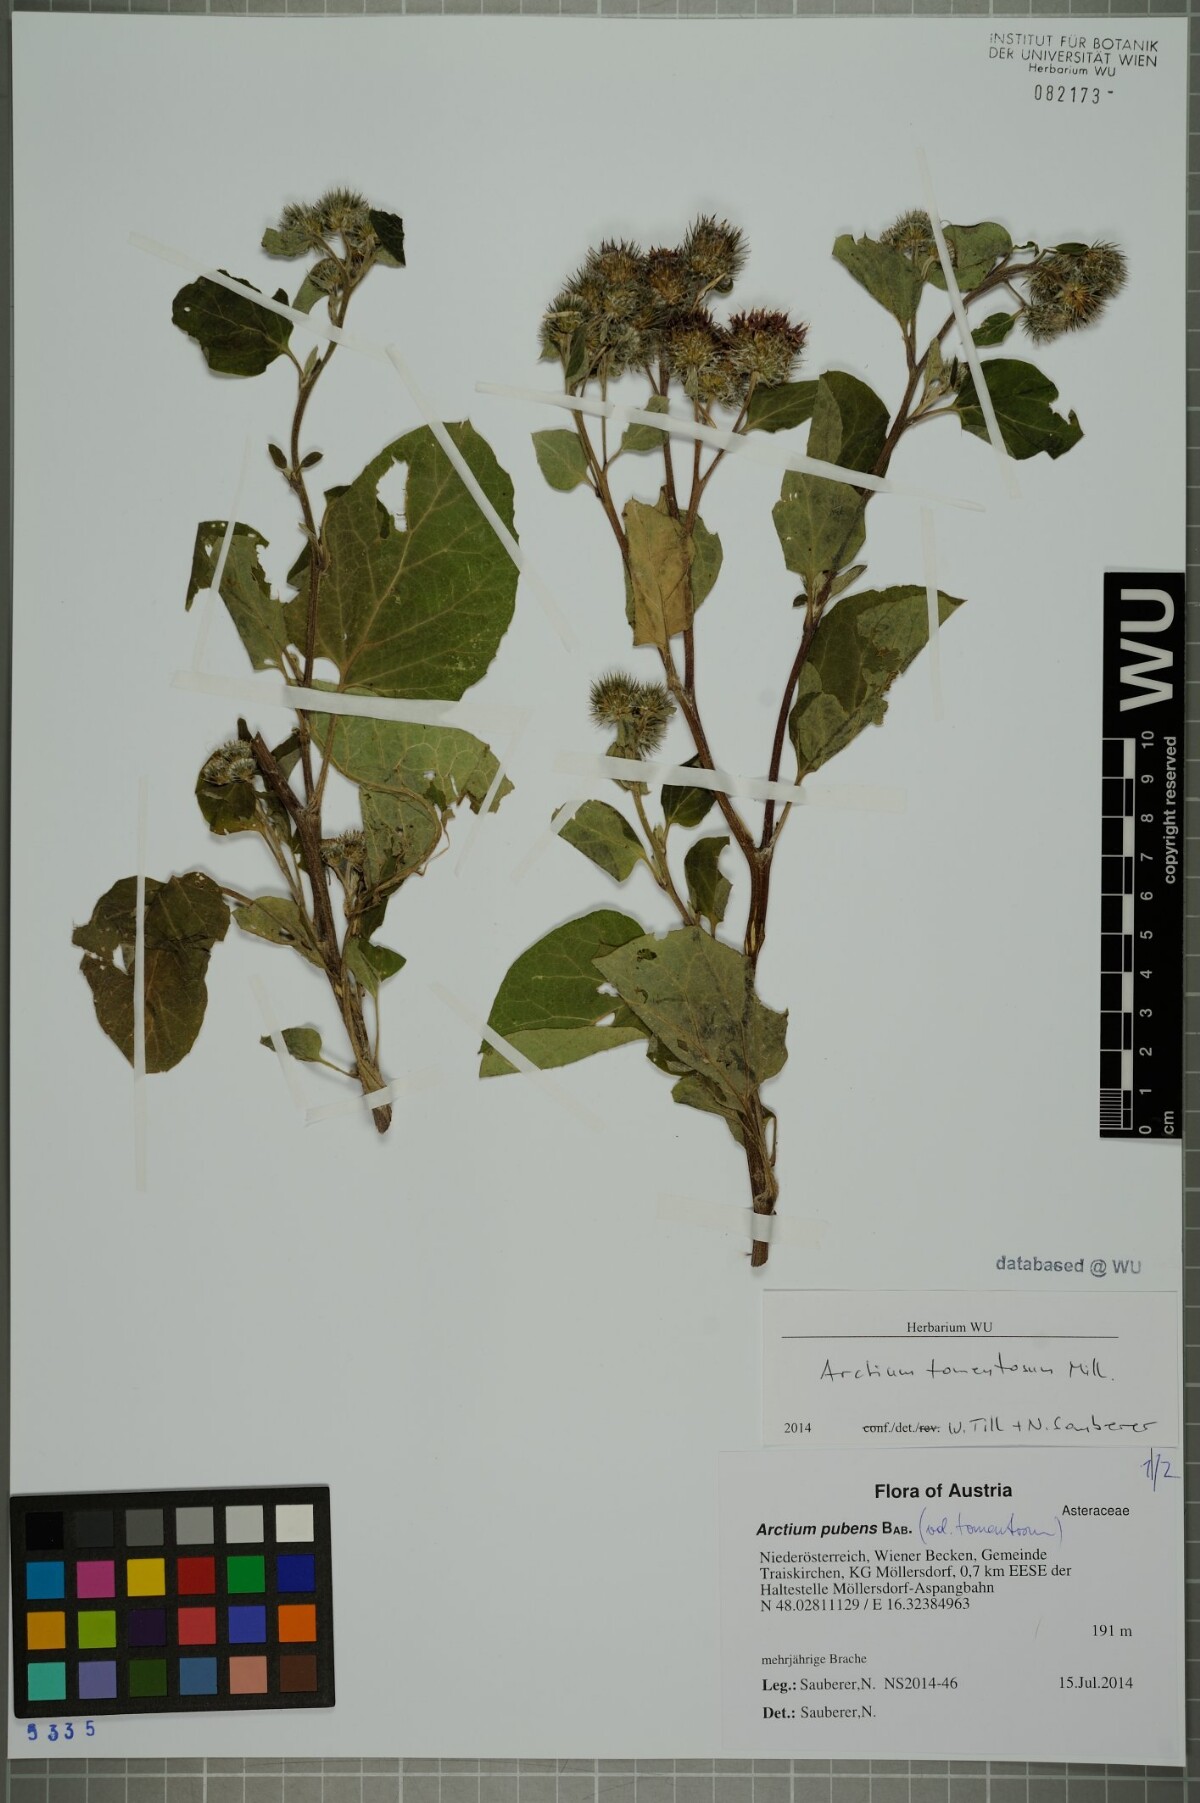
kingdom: Plantae
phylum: Tracheophyta
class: Magnoliopsida
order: Asterales
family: Asteraceae
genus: Arctium
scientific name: Arctium tomentosum
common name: Woolly burdock
